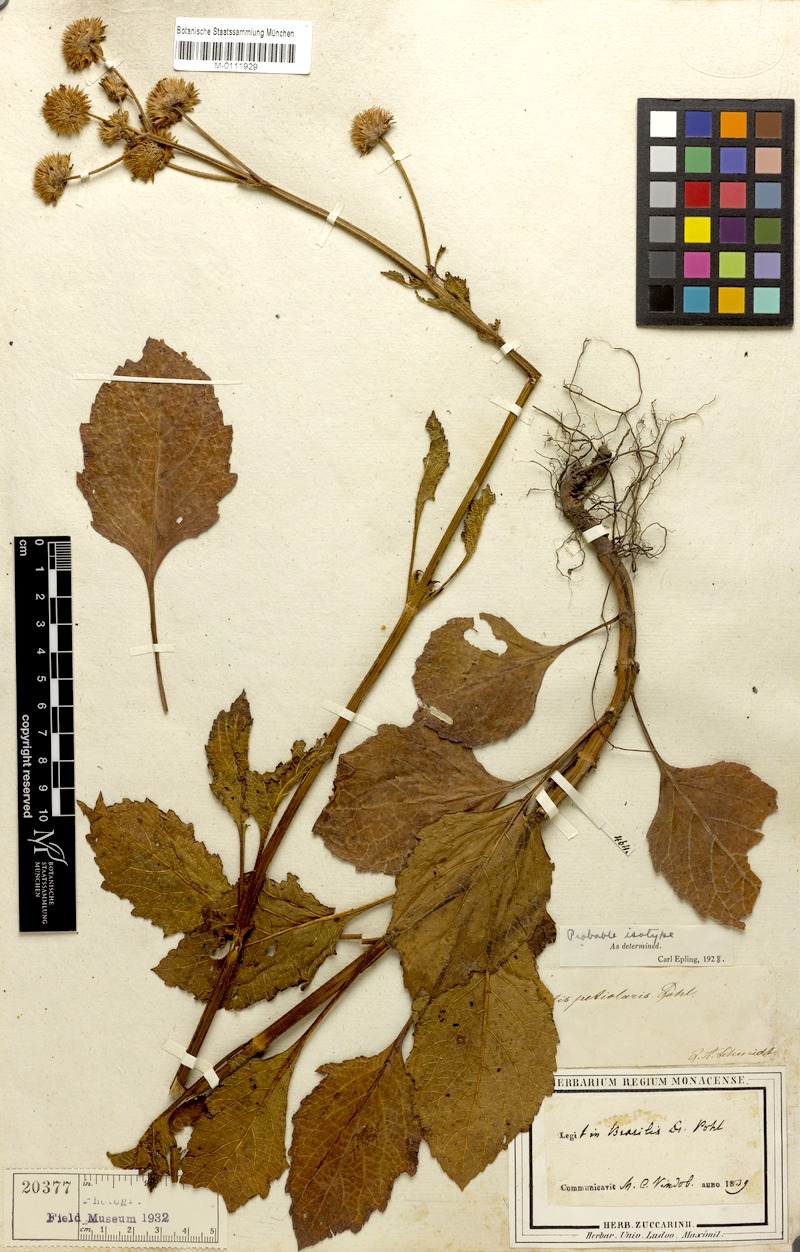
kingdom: Plantae
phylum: Tracheophyta
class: Magnoliopsida
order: Lamiales
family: Lamiaceae
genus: Hyptis
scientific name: Hyptis petiolaris
